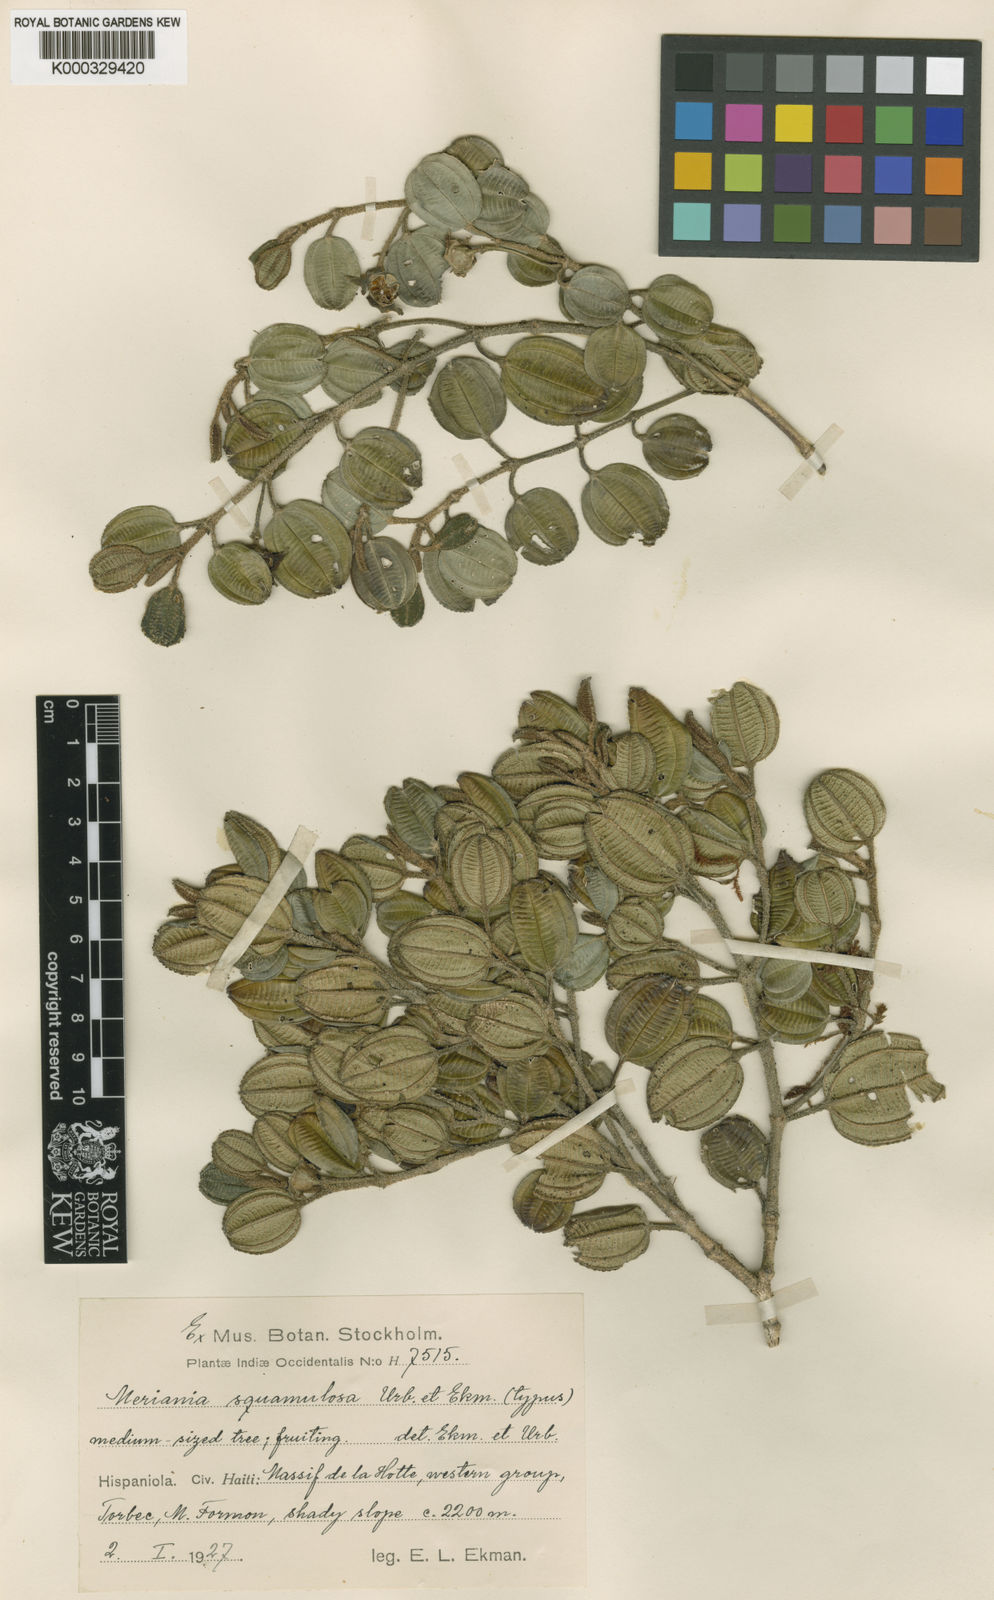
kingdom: Plantae
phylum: Tracheophyta
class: Magnoliopsida
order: Myrtales
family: Melastomataceae
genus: Meriania
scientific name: Meriania squamulosa
